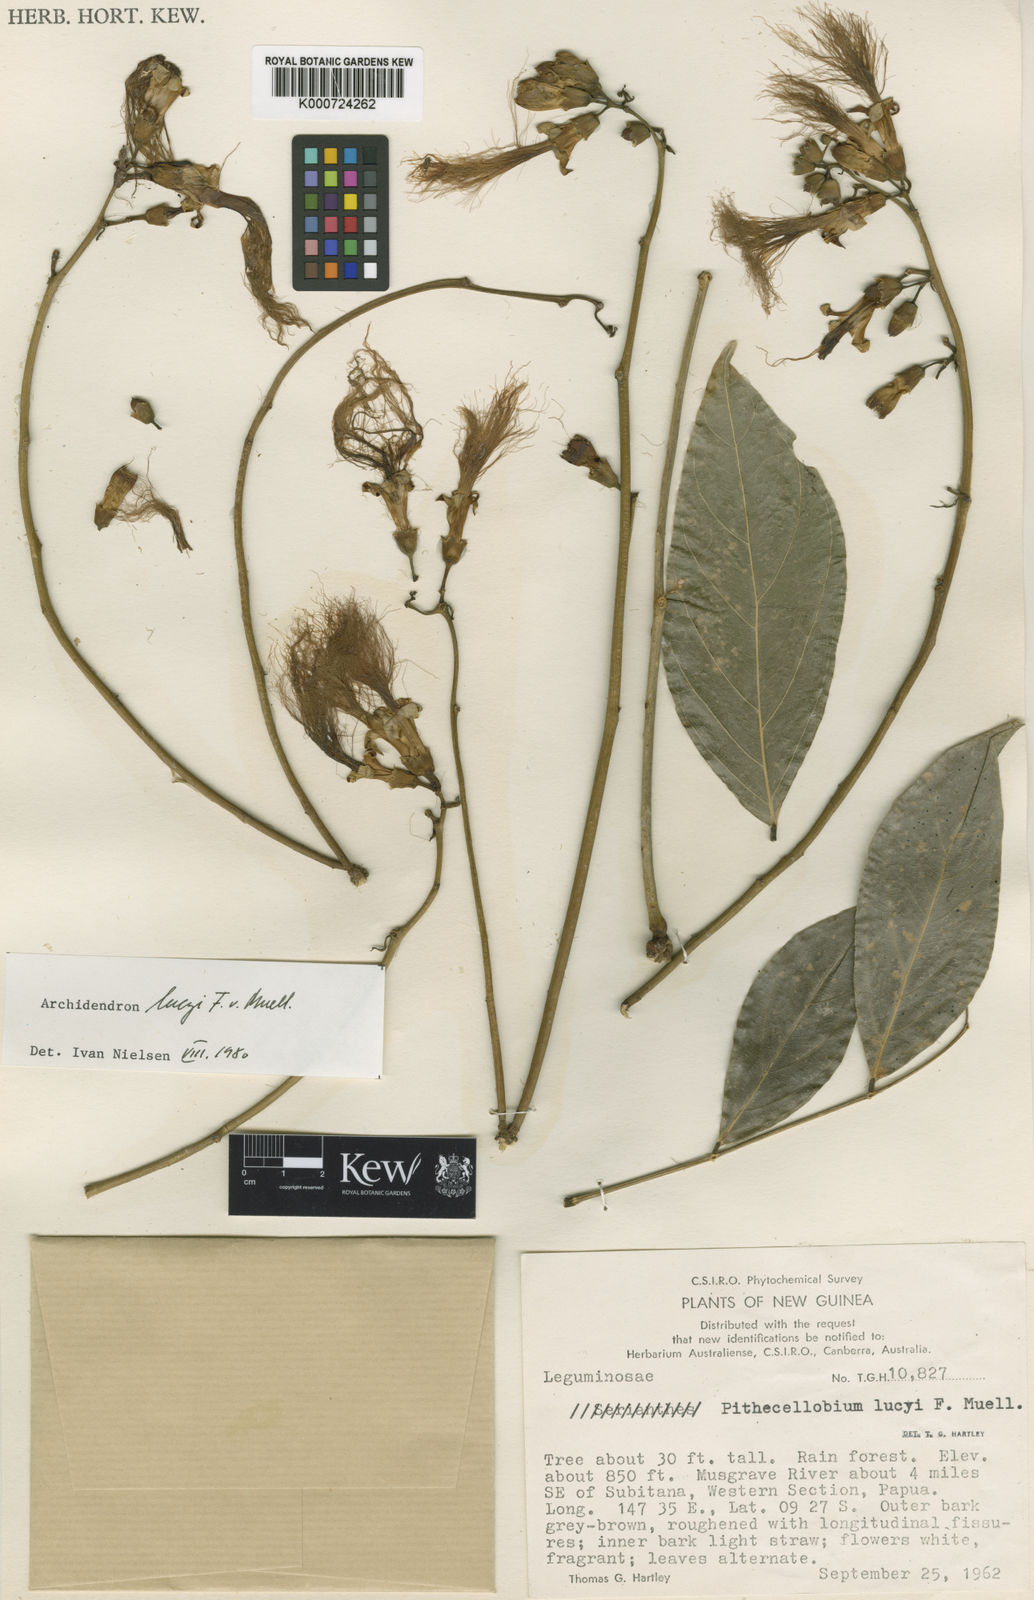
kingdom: Plantae
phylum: Tracheophyta
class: Magnoliopsida
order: Fabales
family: Fabaceae
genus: Archidendron
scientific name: Archidendron lucyi
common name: Scarlet bean
